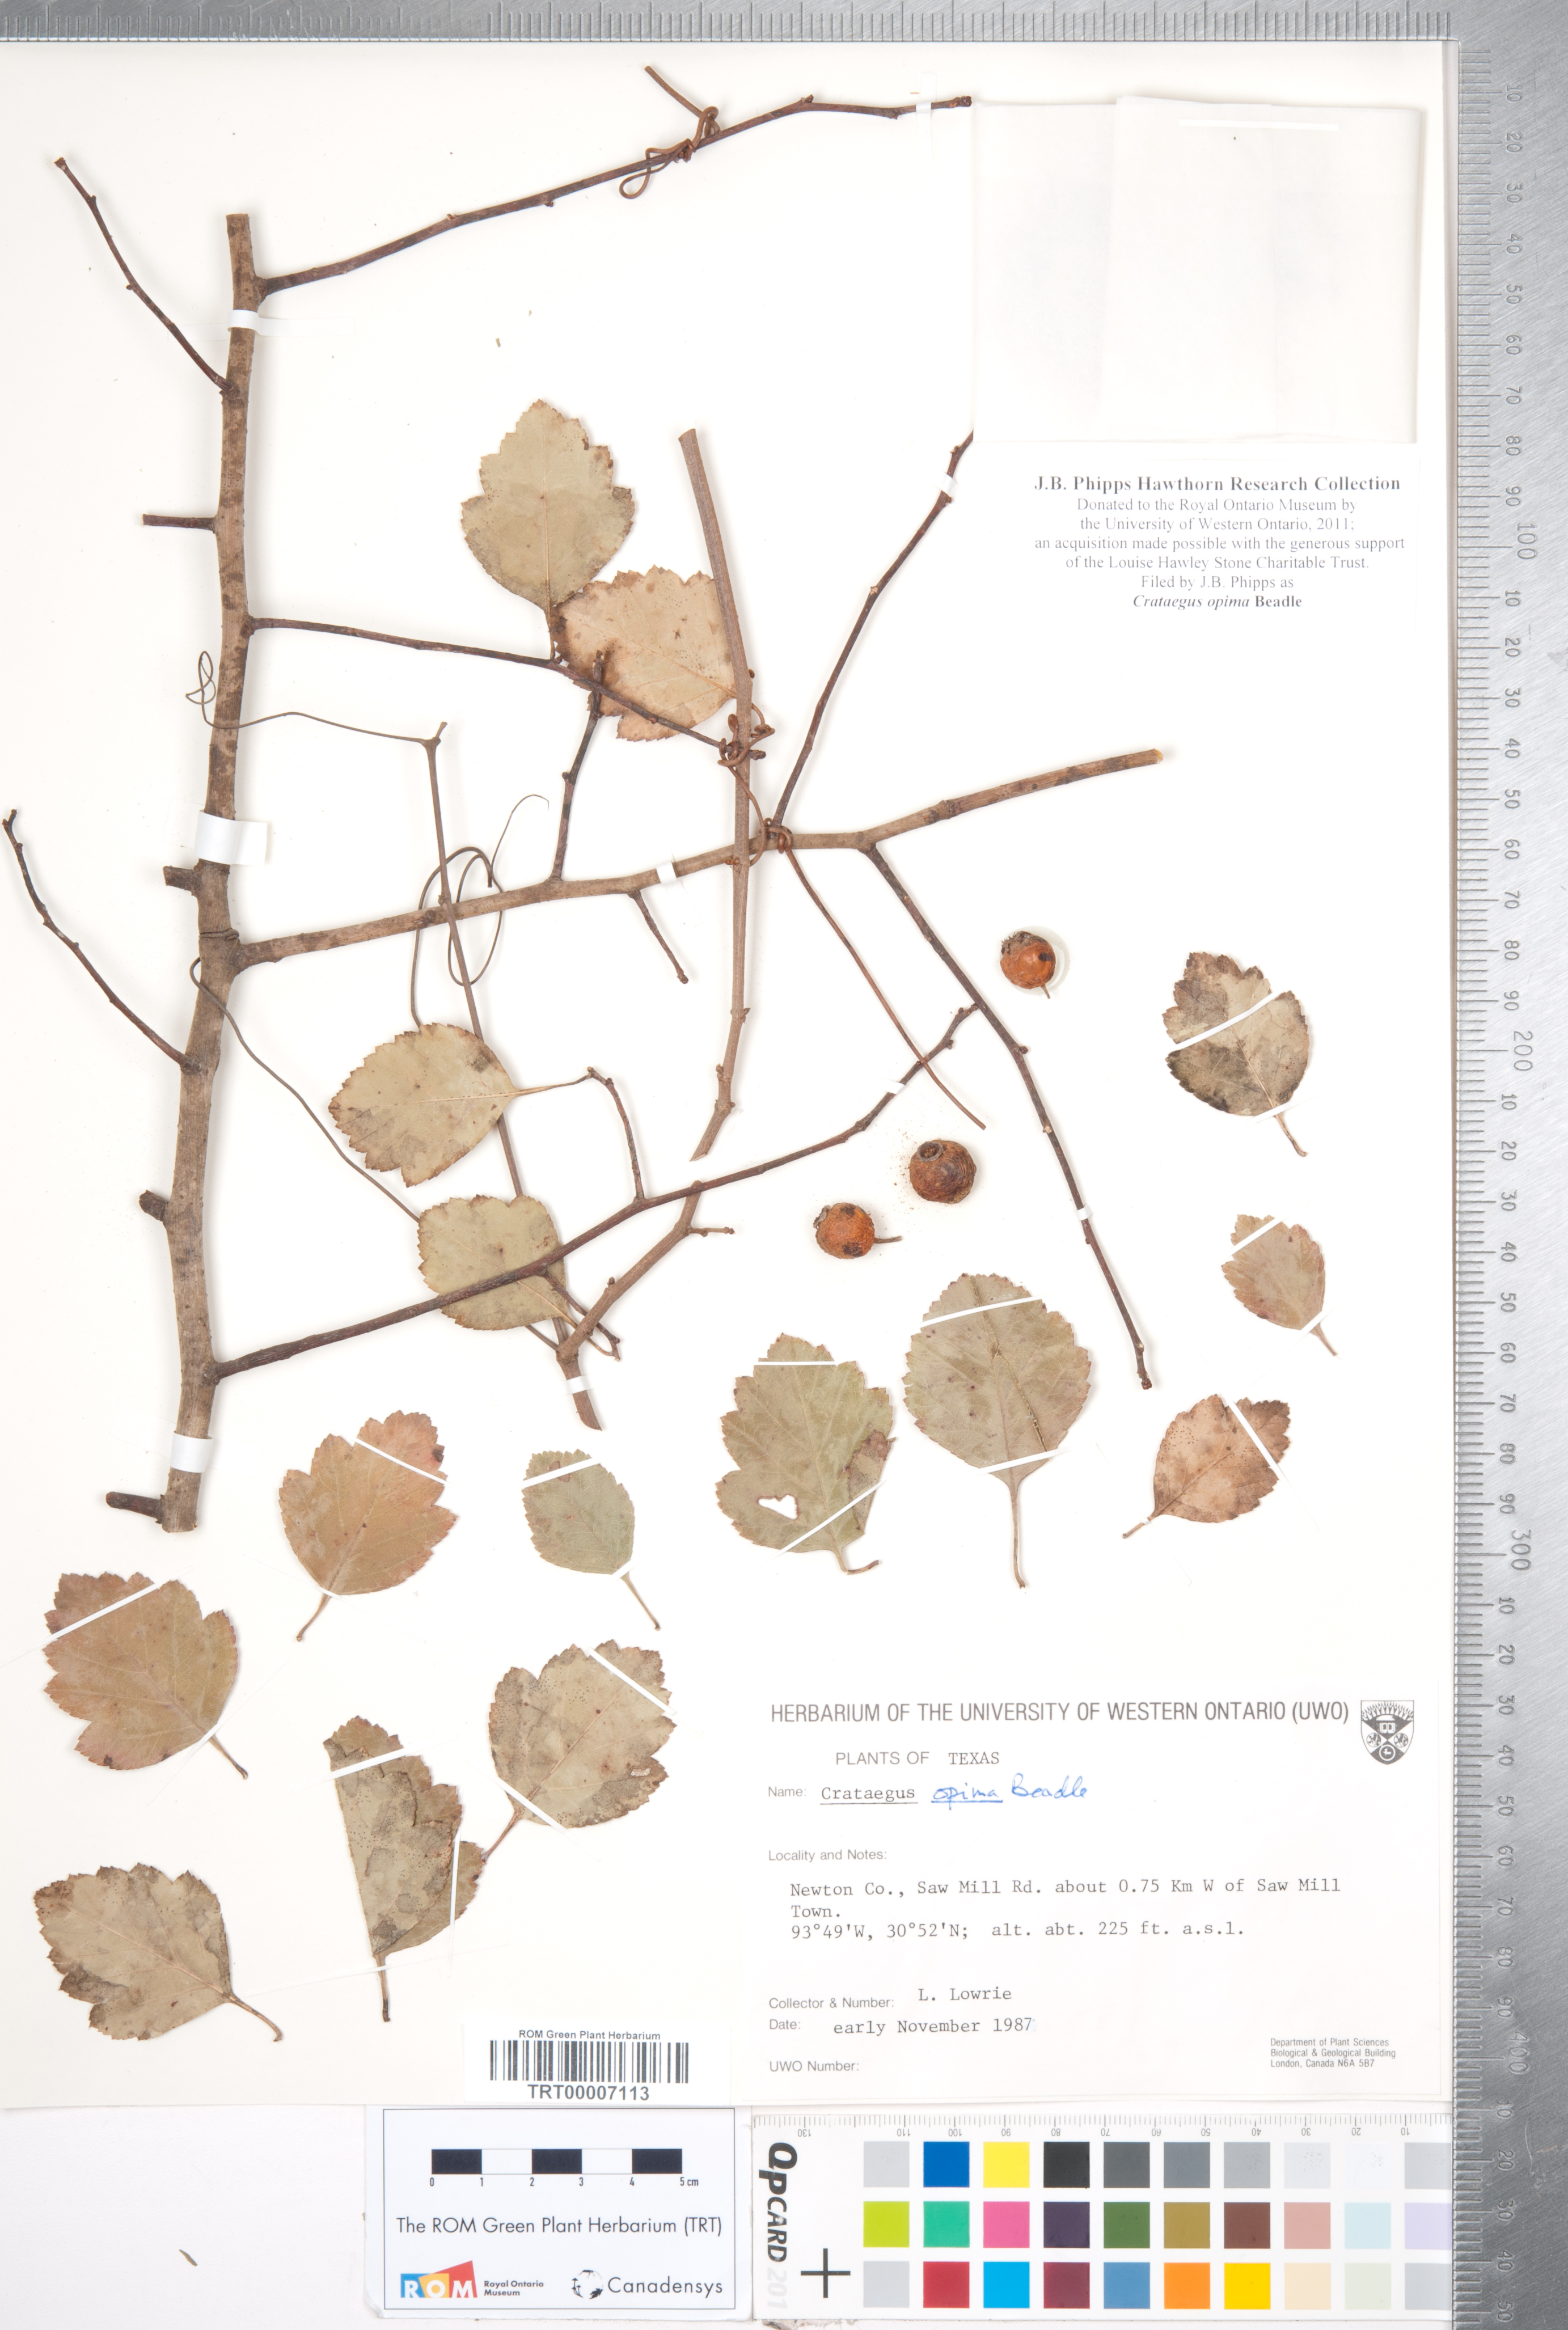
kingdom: Plantae
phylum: Tracheophyta
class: Magnoliopsida
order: Rosales
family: Rosaceae
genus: Crataegus
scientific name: Crataegus pulcherrima
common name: Beautiful hawthorn
